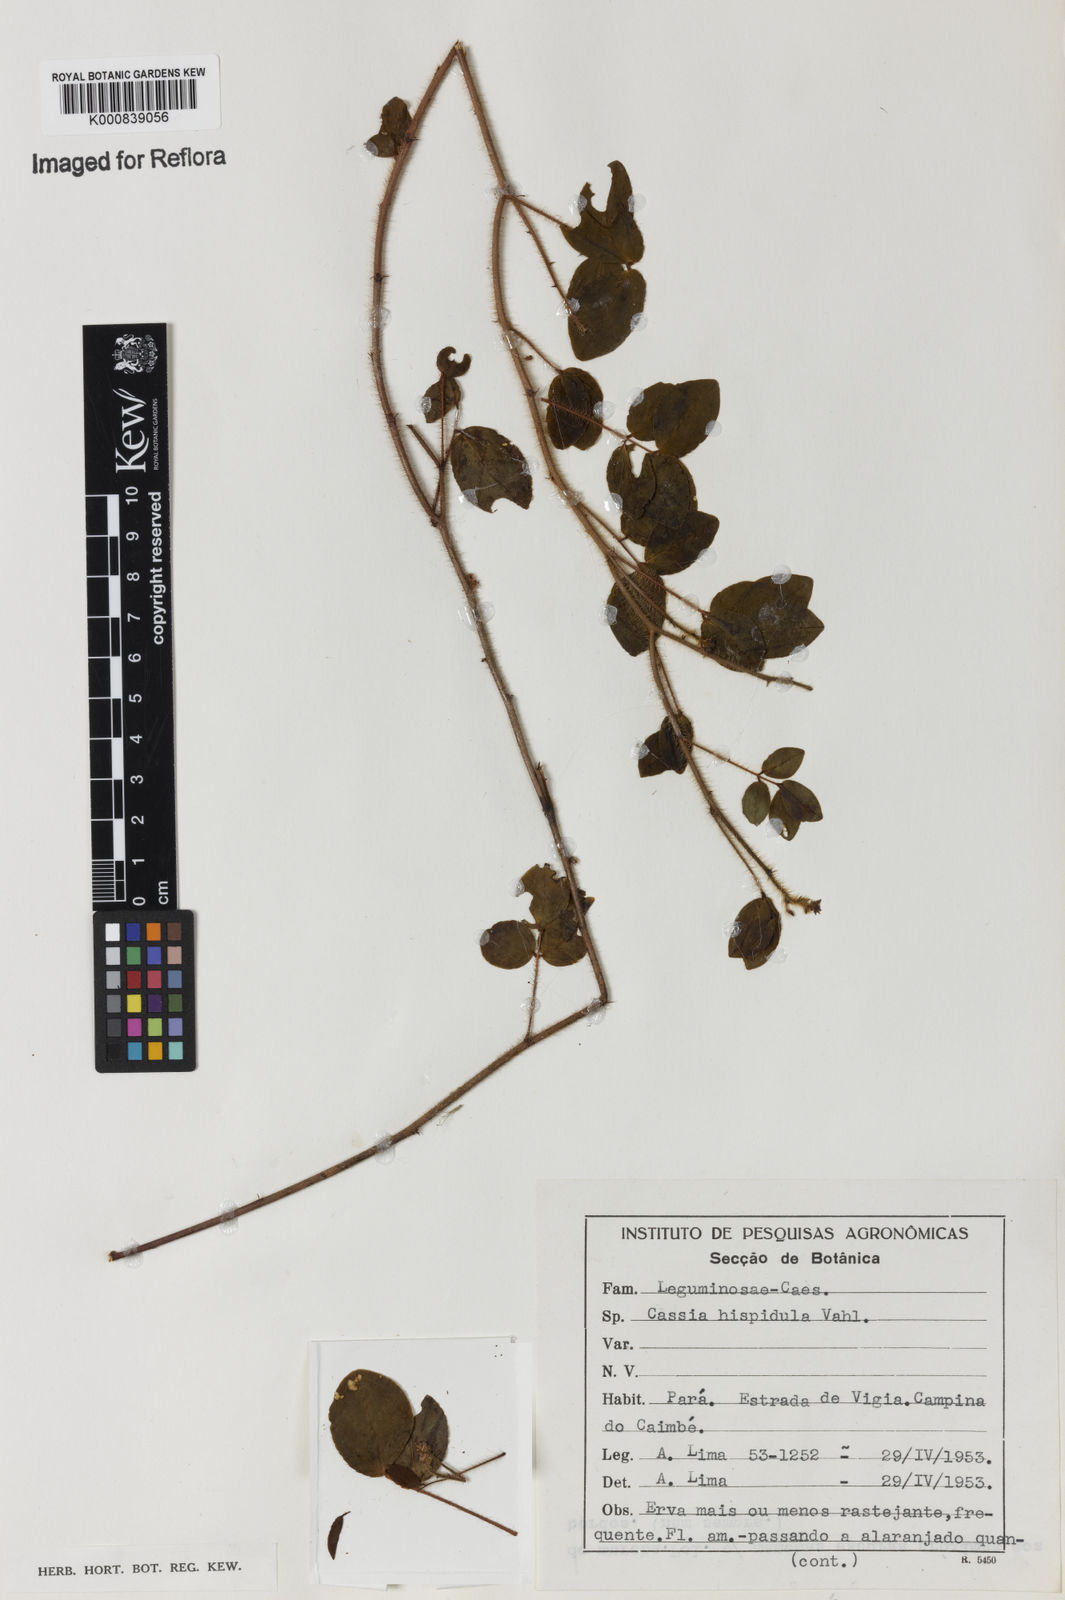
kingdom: Plantae
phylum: Tracheophyta
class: Magnoliopsida
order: Fabales
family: Fabaceae
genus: Chamaecrista
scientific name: Chamaecrista hispidula
